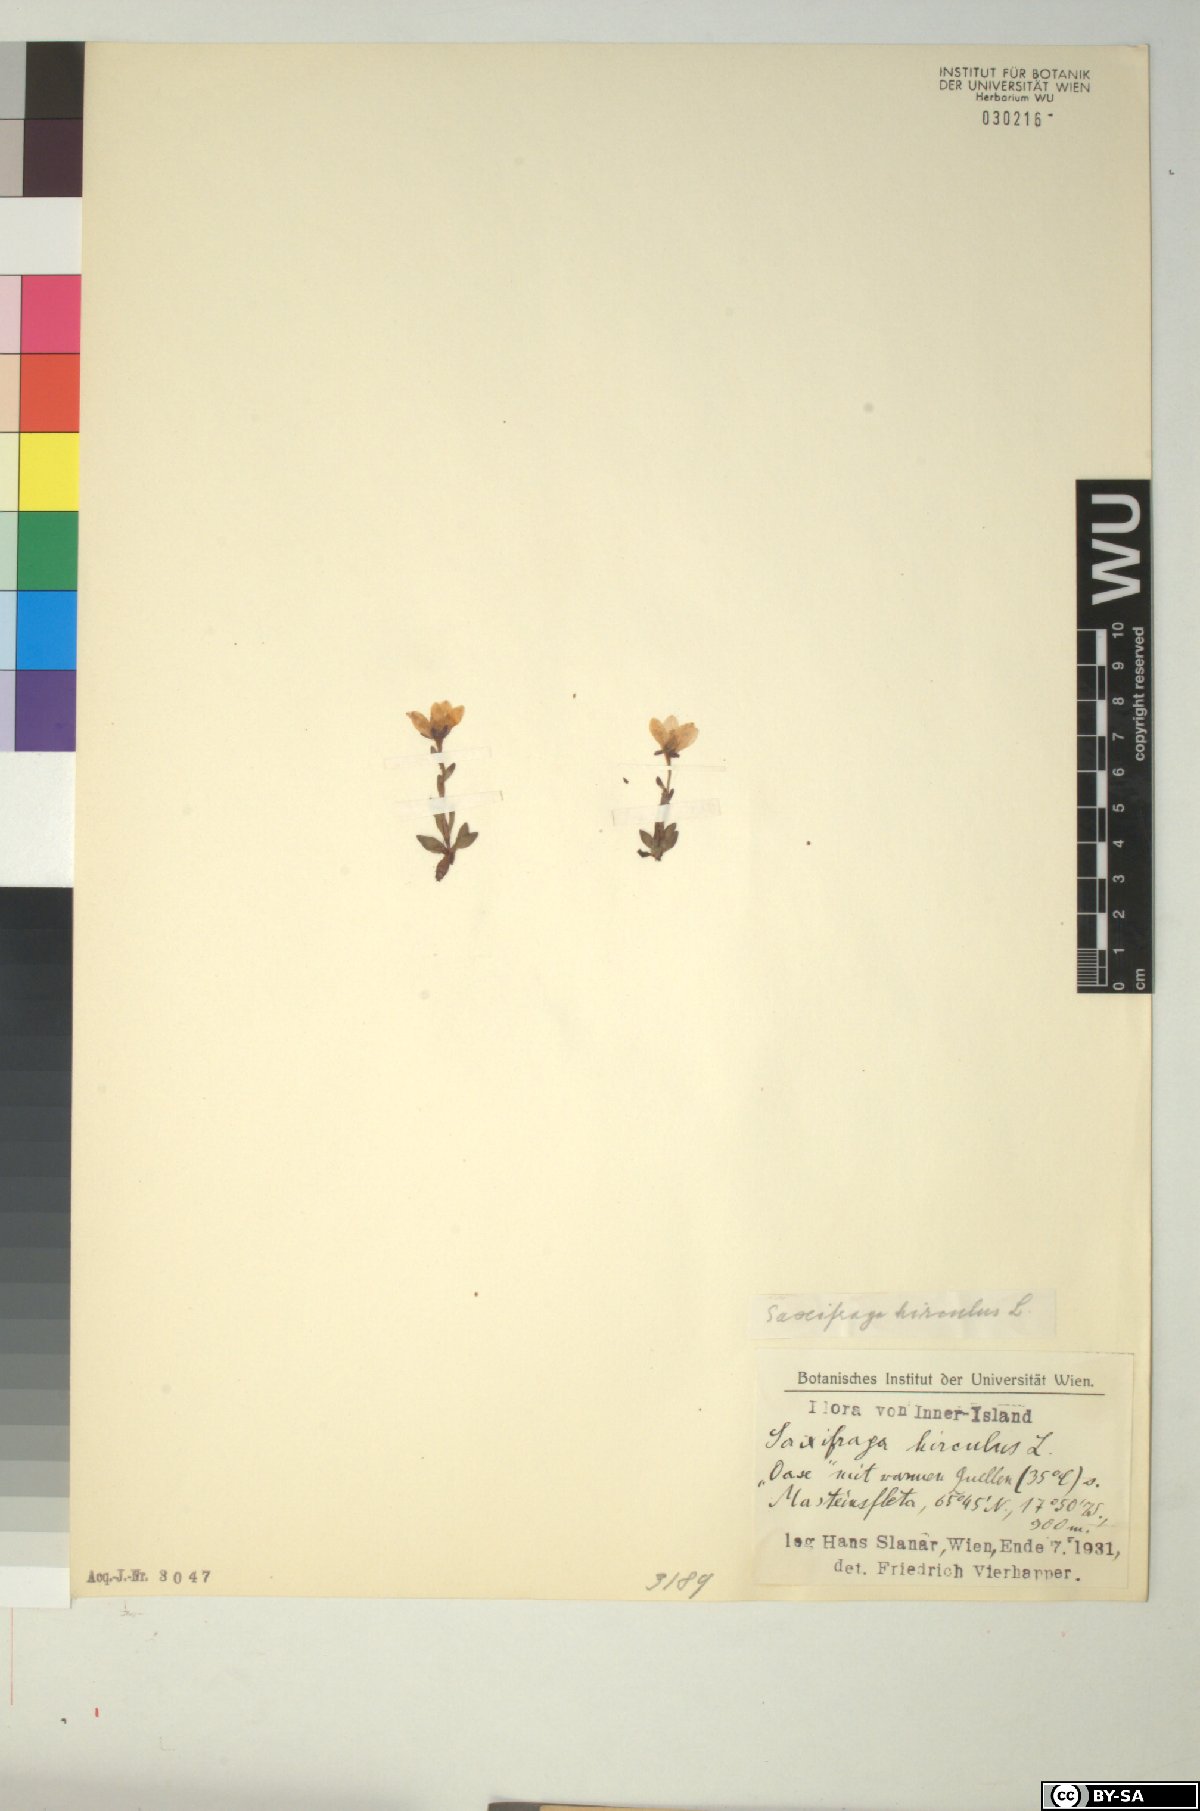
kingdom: Plantae
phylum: Tracheophyta
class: Magnoliopsida
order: Saxifragales
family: Saxifragaceae
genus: Saxifraga
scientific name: Saxifraga hirculus
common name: Yellow marsh saxifrage
